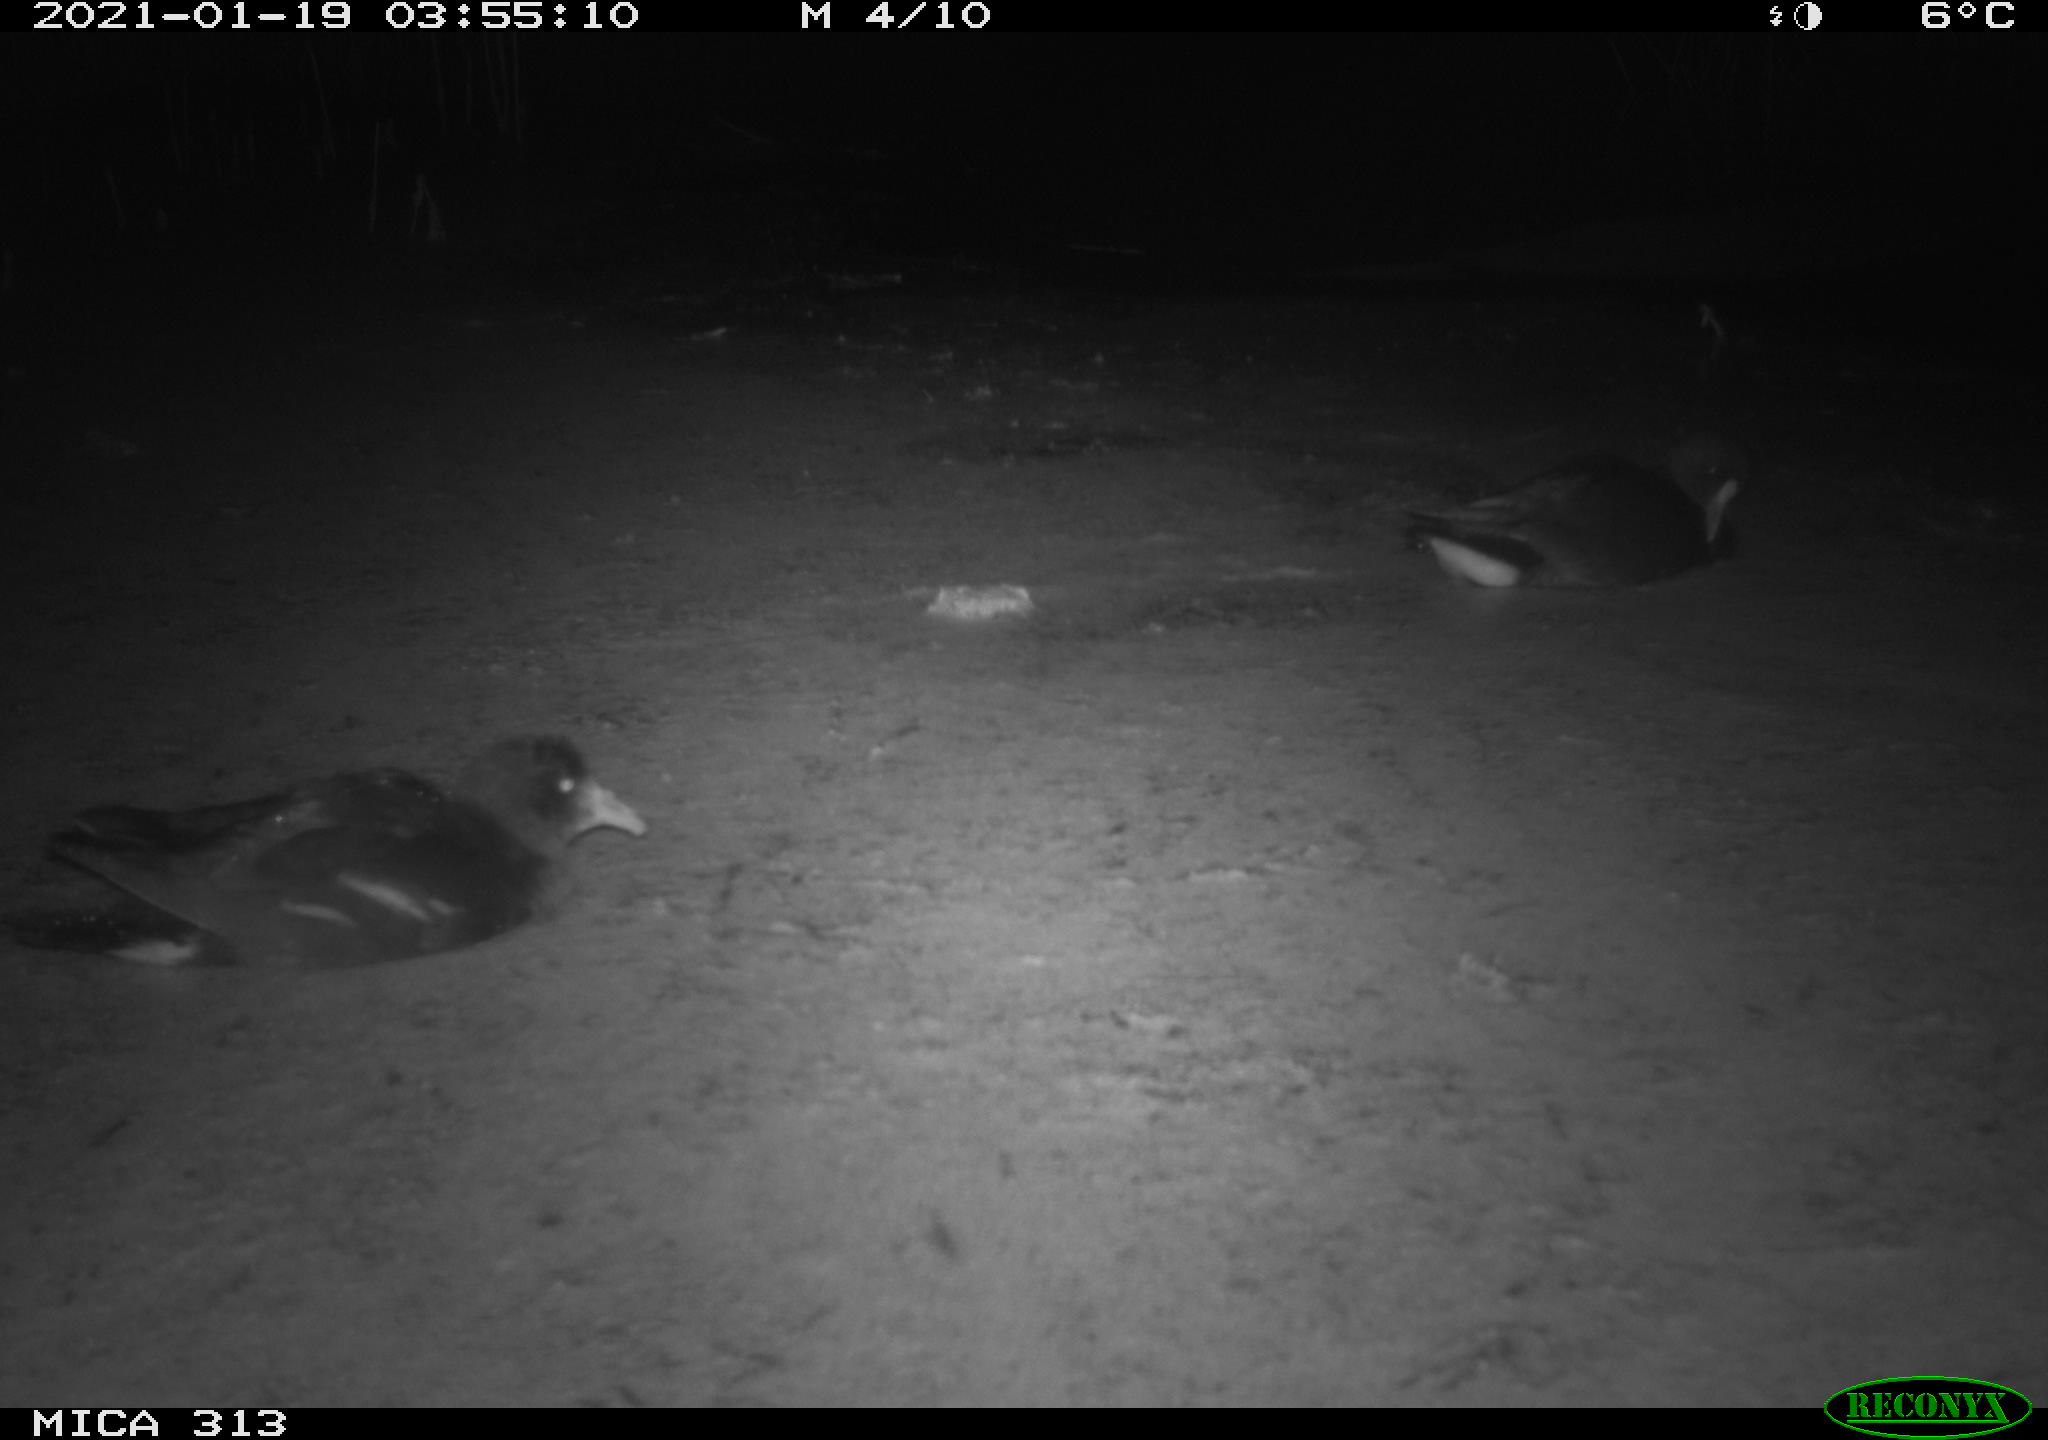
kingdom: Animalia
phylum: Chordata
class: Aves
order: Gruiformes
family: Rallidae
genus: Gallinula
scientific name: Gallinula chloropus
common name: Common moorhen
